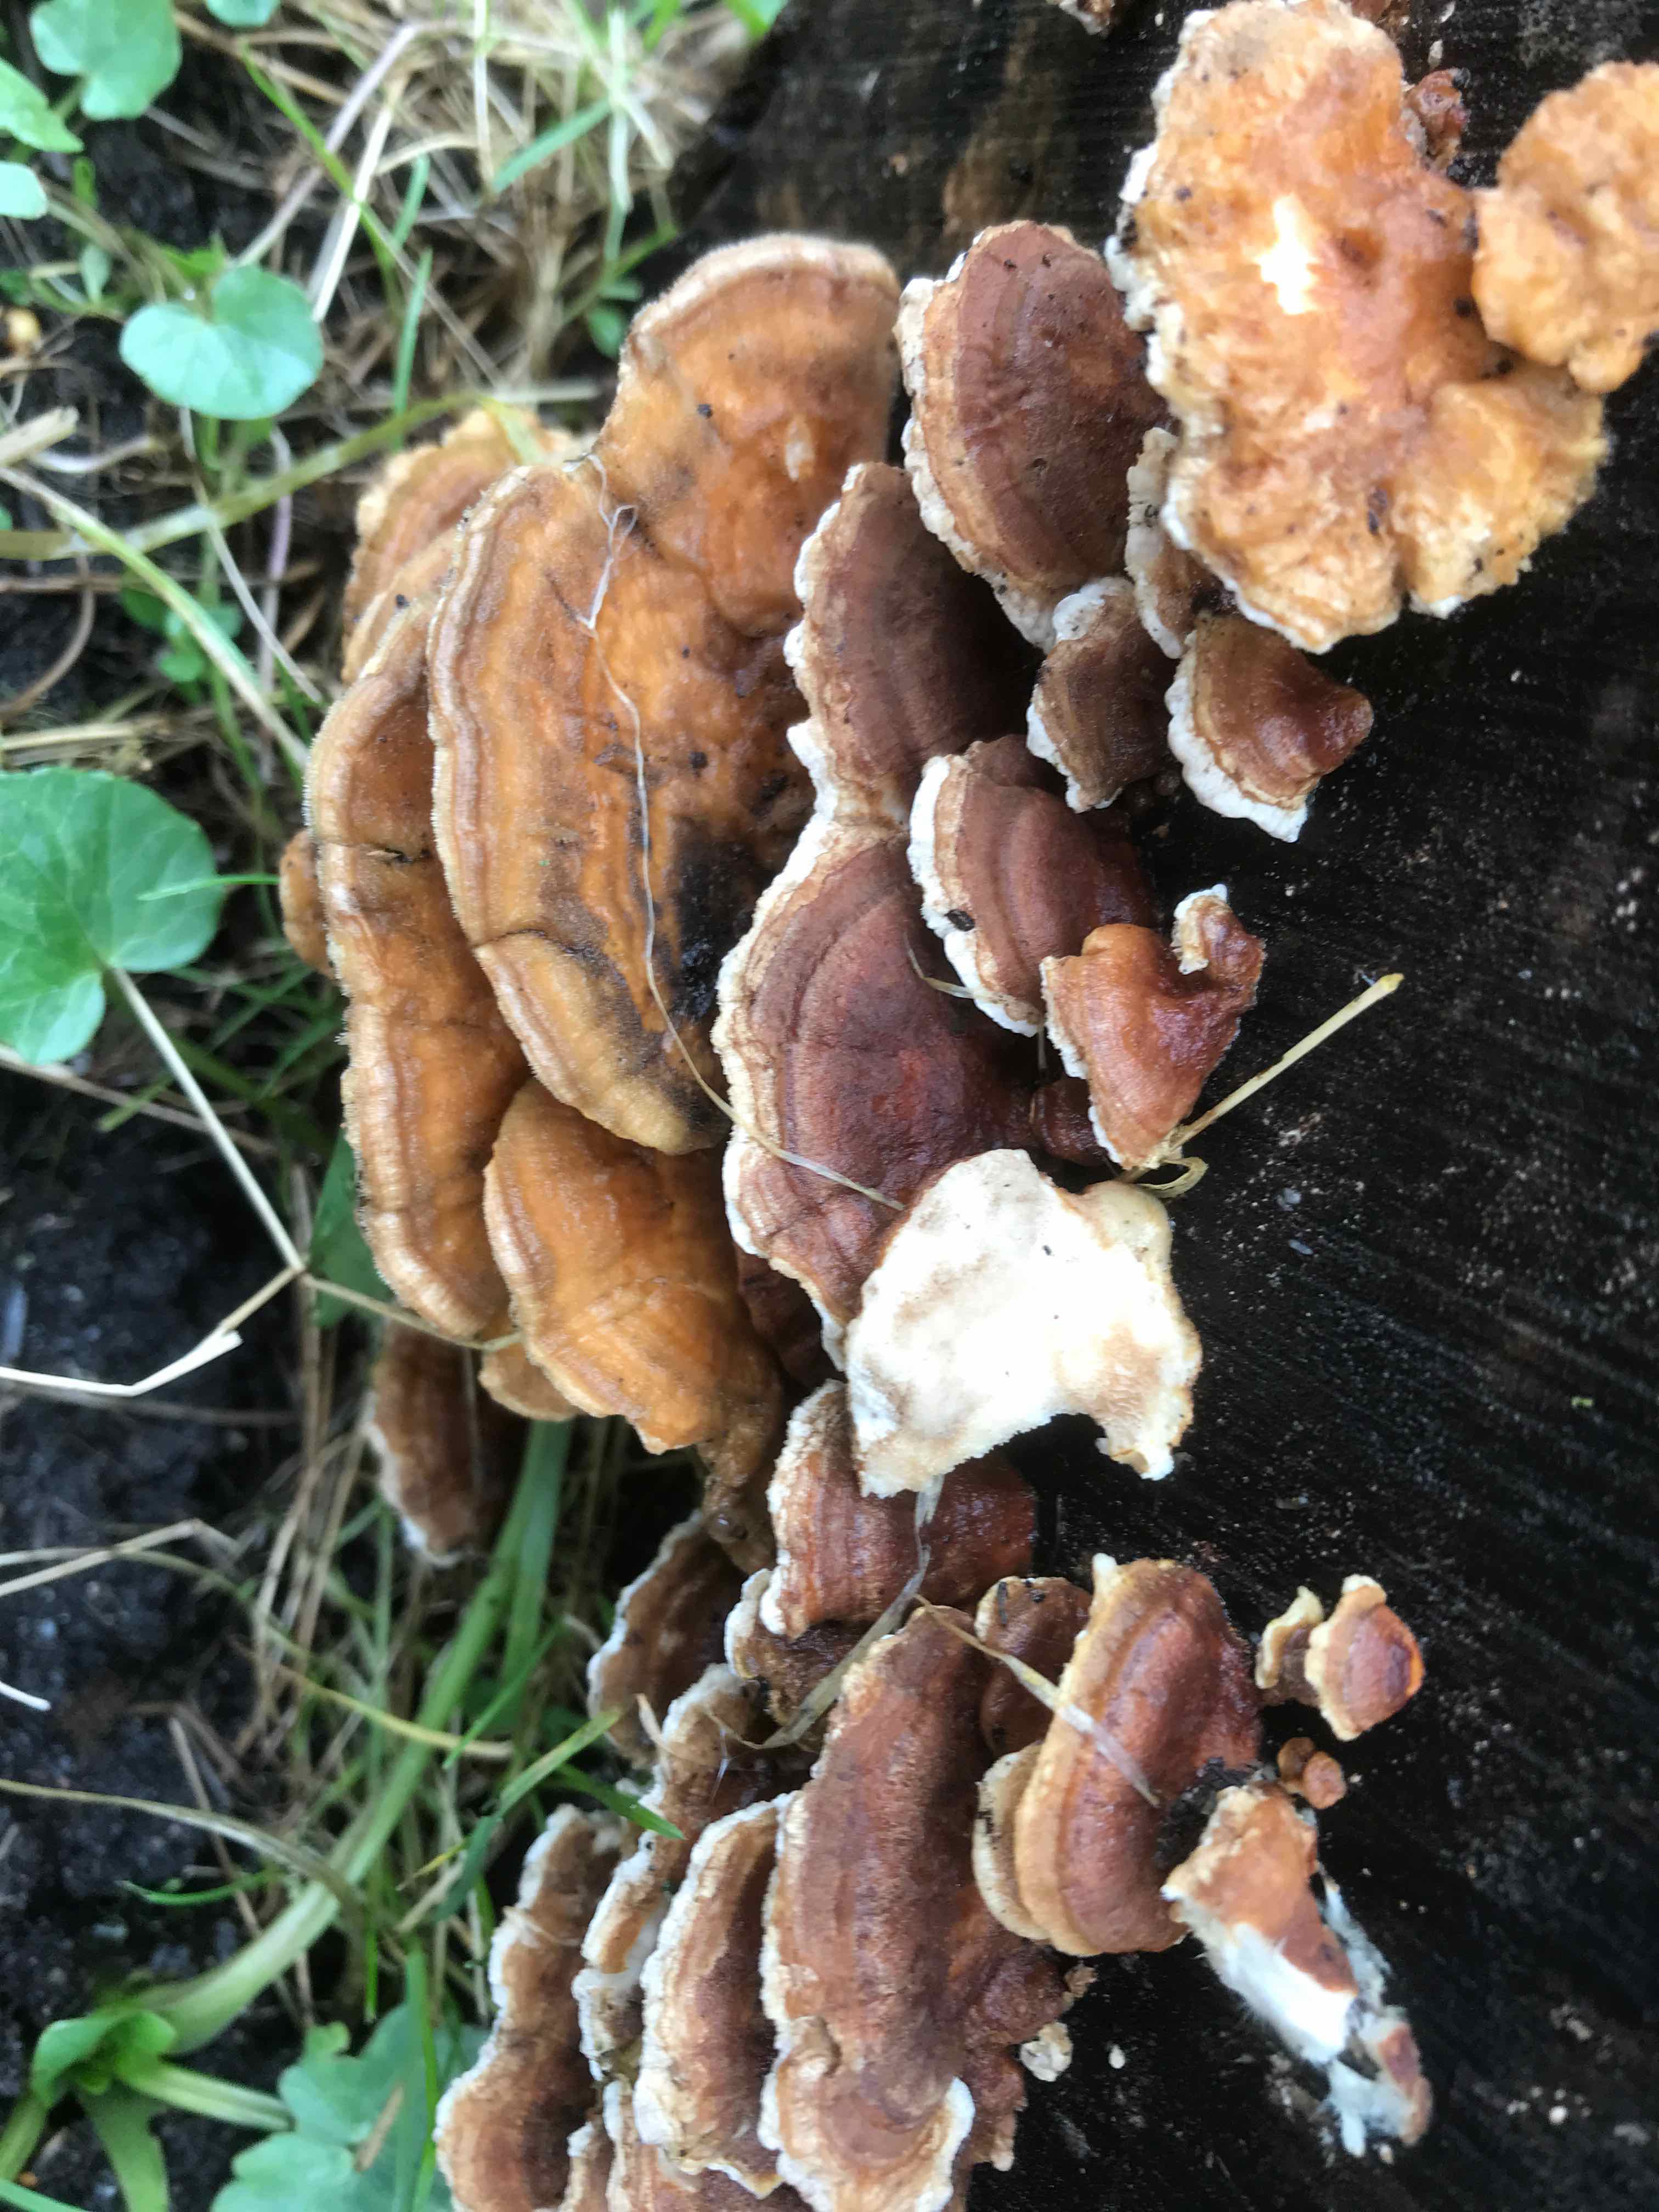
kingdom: Fungi
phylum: Basidiomycota
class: Agaricomycetes
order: Polyporales
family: Polyporaceae
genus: Trametes
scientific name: Trametes ochracea
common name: bæltet læderporesvamp
